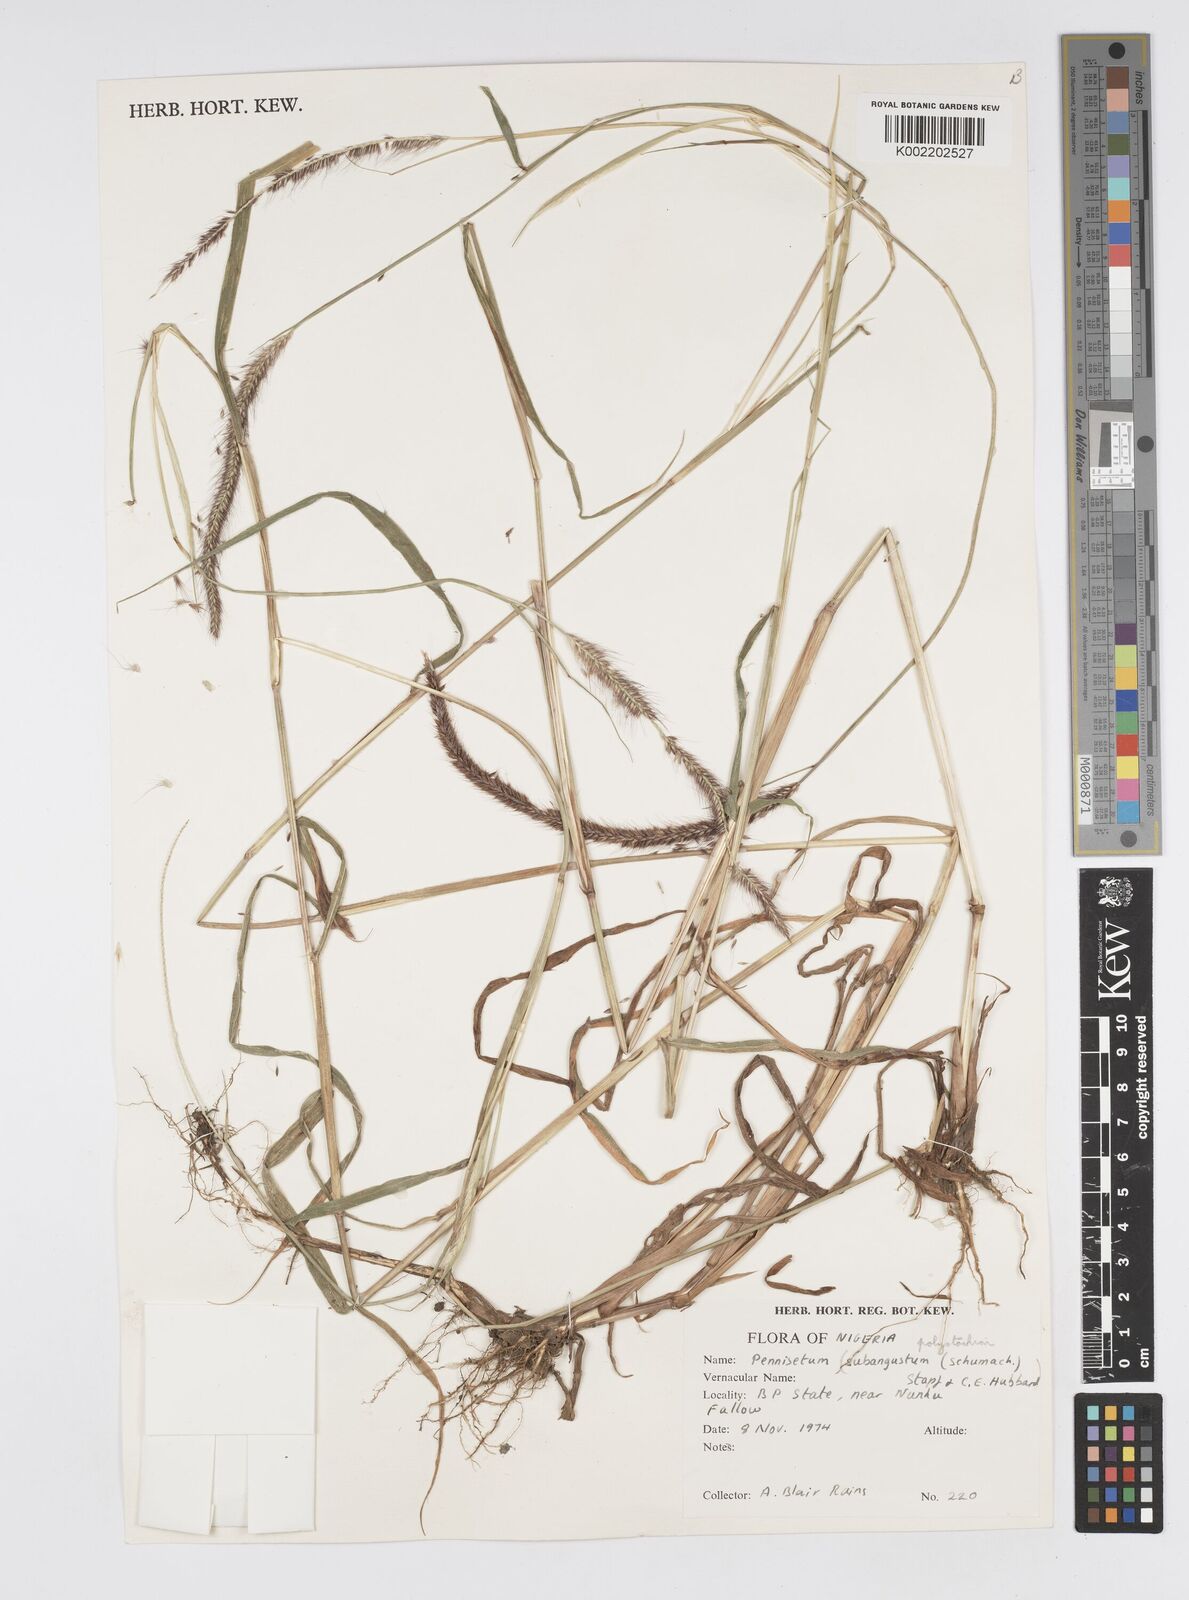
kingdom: Plantae
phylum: Tracheophyta
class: Liliopsida
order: Poales
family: Poaceae
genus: Setaria
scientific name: Setaria parviflora
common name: Knotroot bristle-grass
